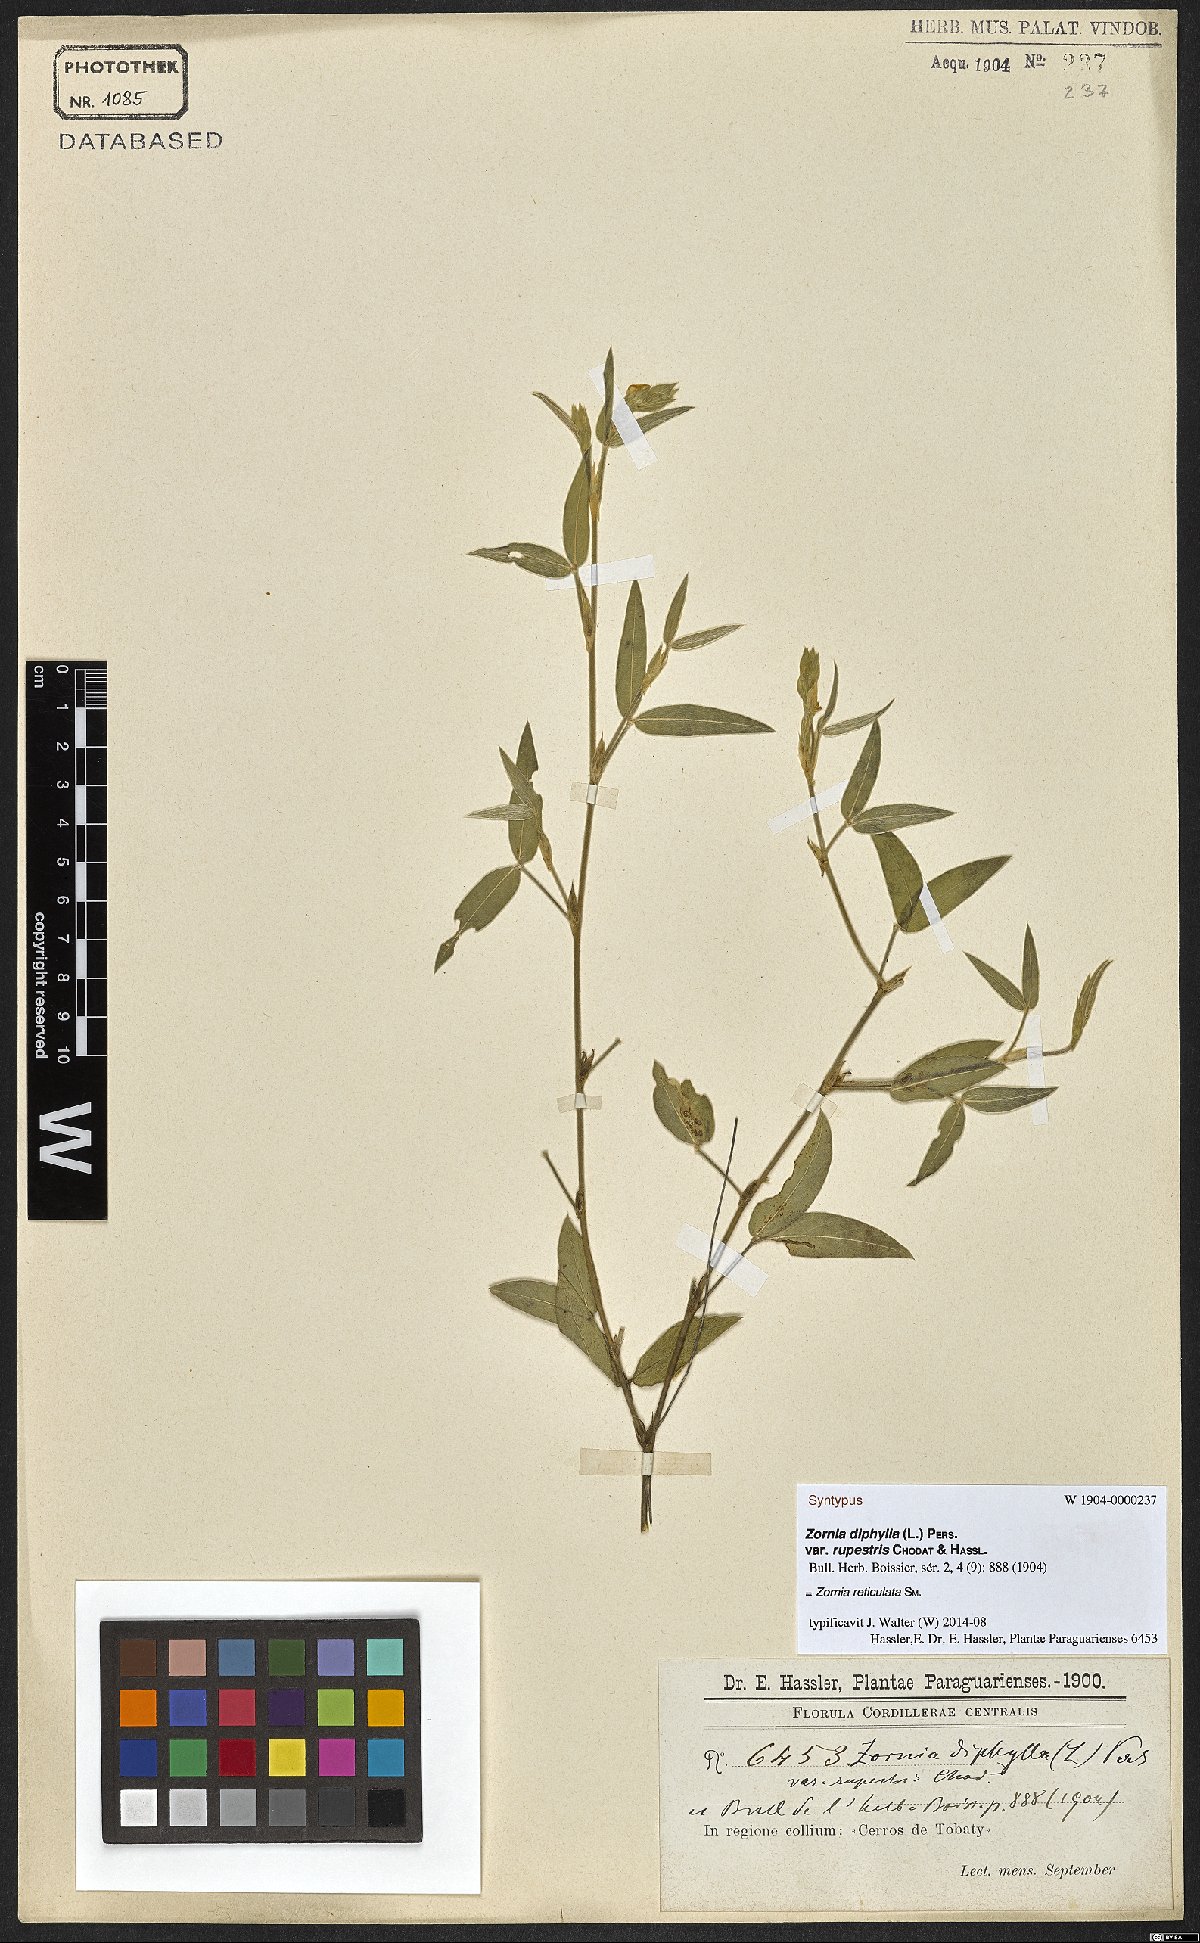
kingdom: Plantae
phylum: Tracheophyta
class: Magnoliopsida
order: Fabales
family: Fabaceae
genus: Zornia
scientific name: Zornia reticulata
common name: Reticulate viperina
